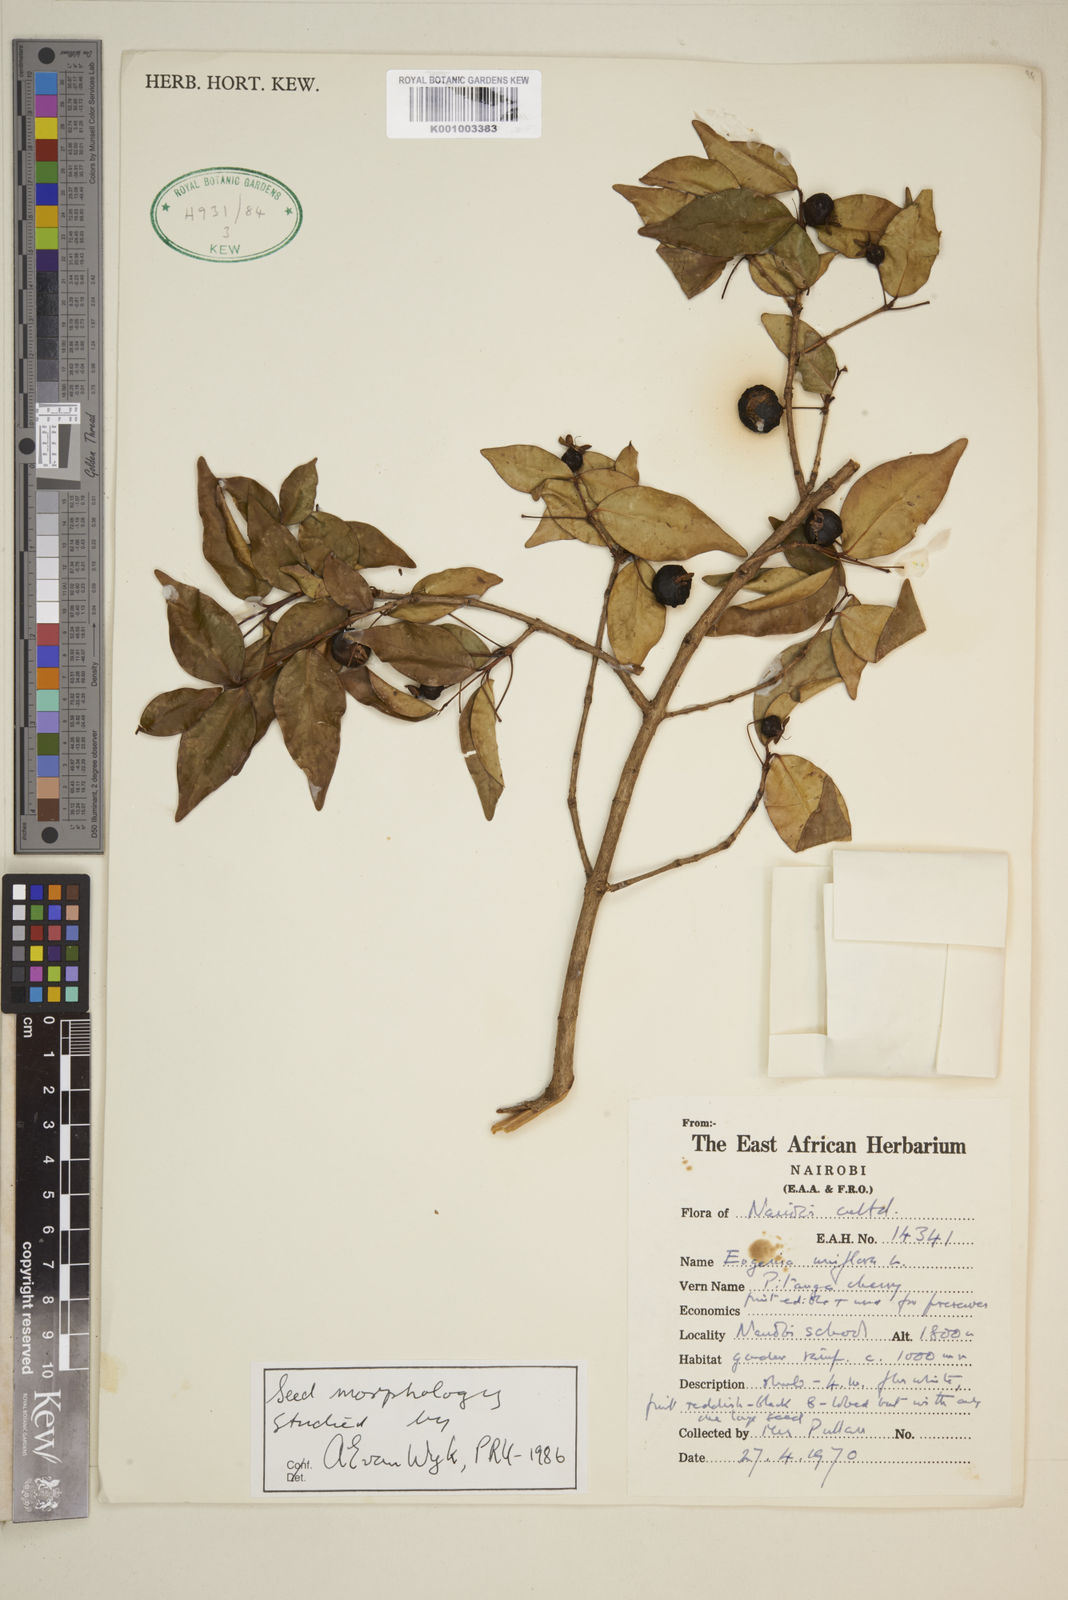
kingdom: Plantae
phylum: Tracheophyta
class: Magnoliopsida
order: Myrtales
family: Myrtaceae
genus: Eugenia
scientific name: Eugenia uniflora
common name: Surinam cherry
